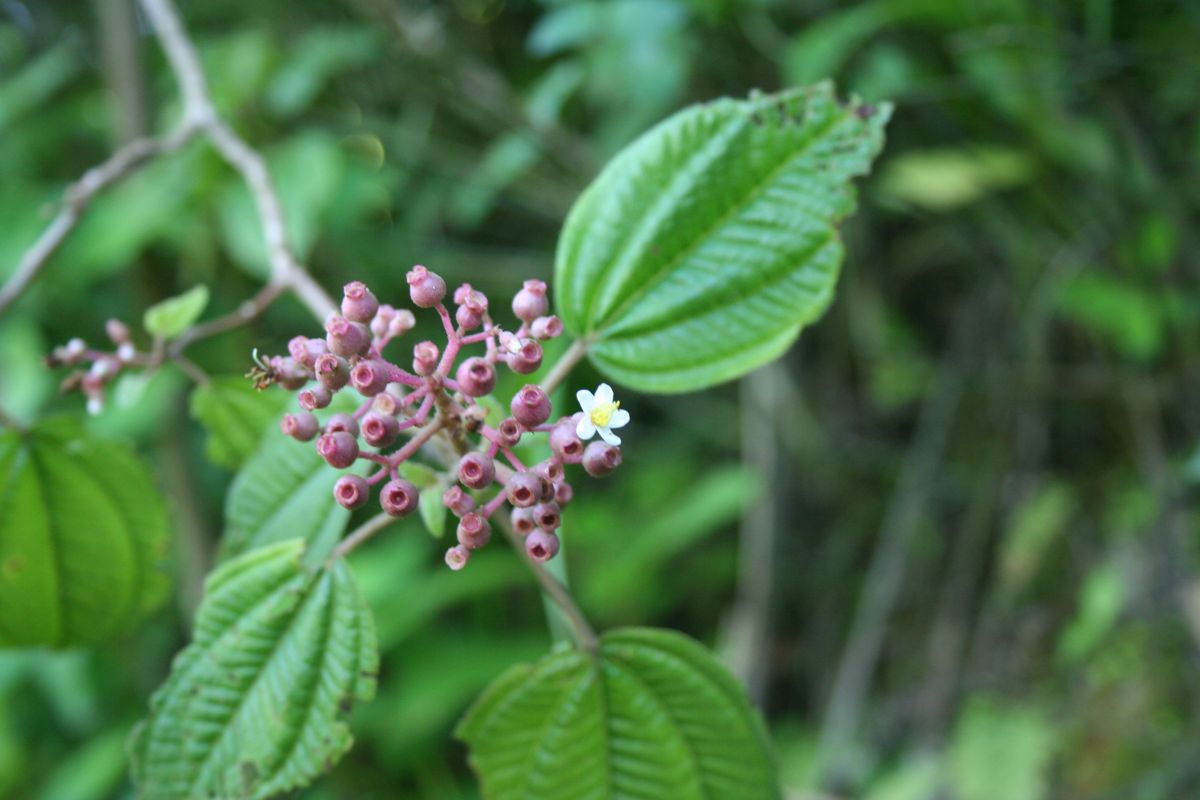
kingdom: Plantae
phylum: Tracheophyta
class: Magnoliopsida
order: Myrtales
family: Melastomataceae
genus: Miconia
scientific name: Miconia guatemalensis
